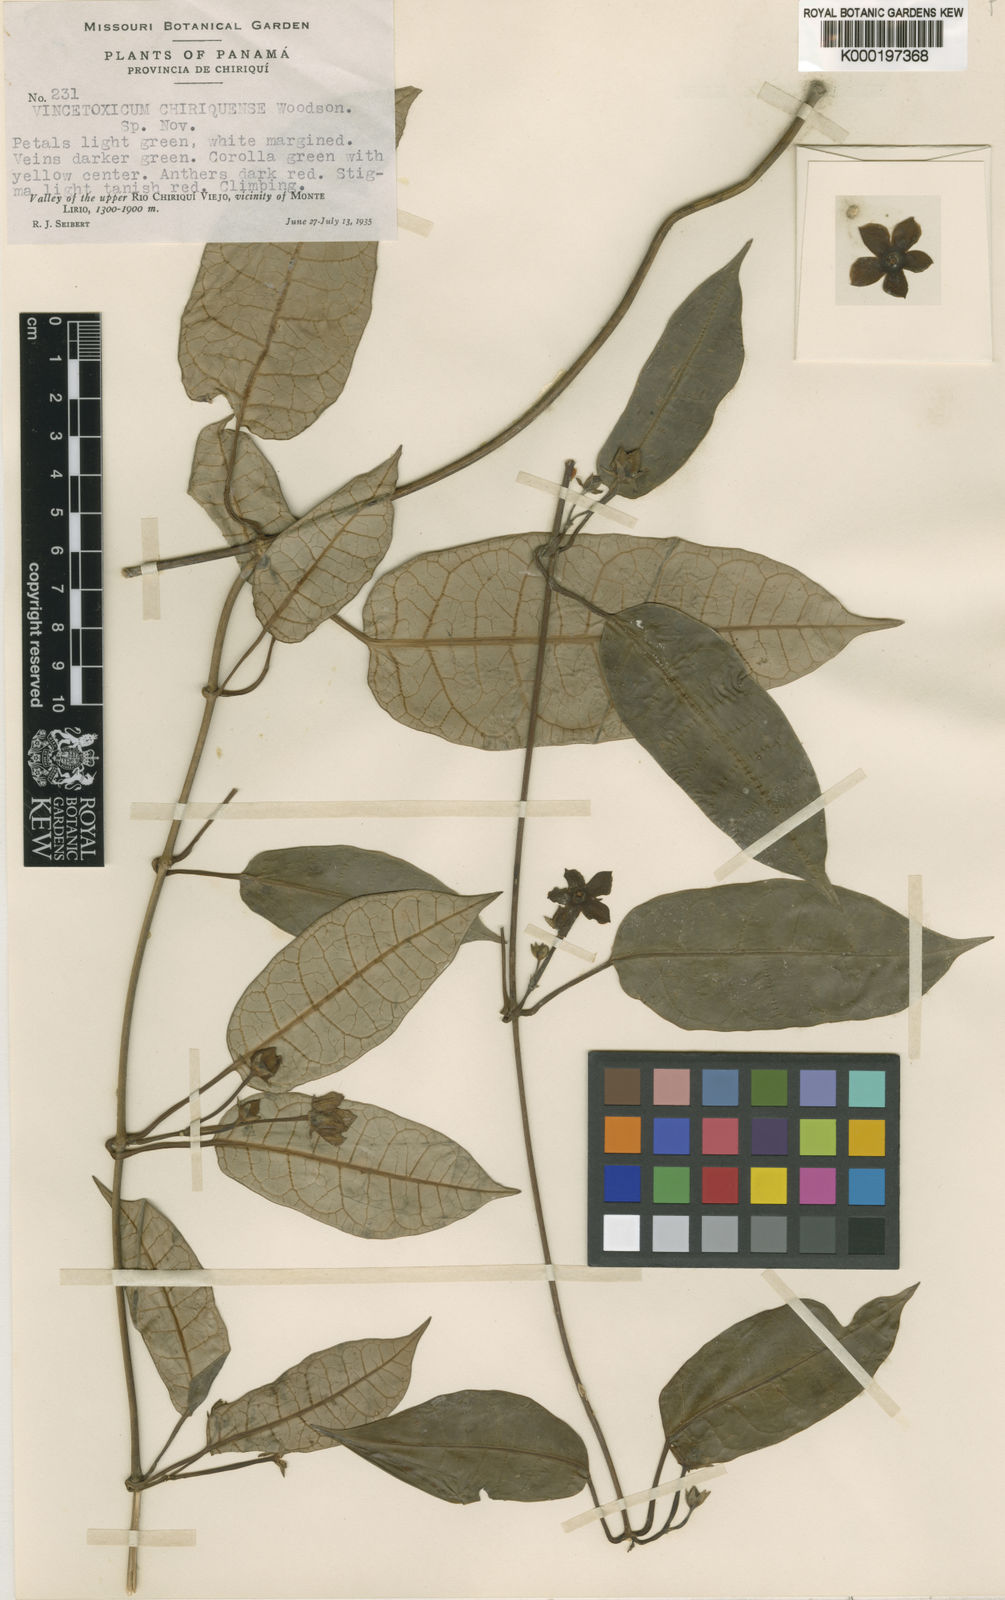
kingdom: Plantae
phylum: Tracheophyta
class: Magnoliopsida
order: Gentianales
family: Apocynaceae
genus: Gonolobus
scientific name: Gonolobus chiriquensis
